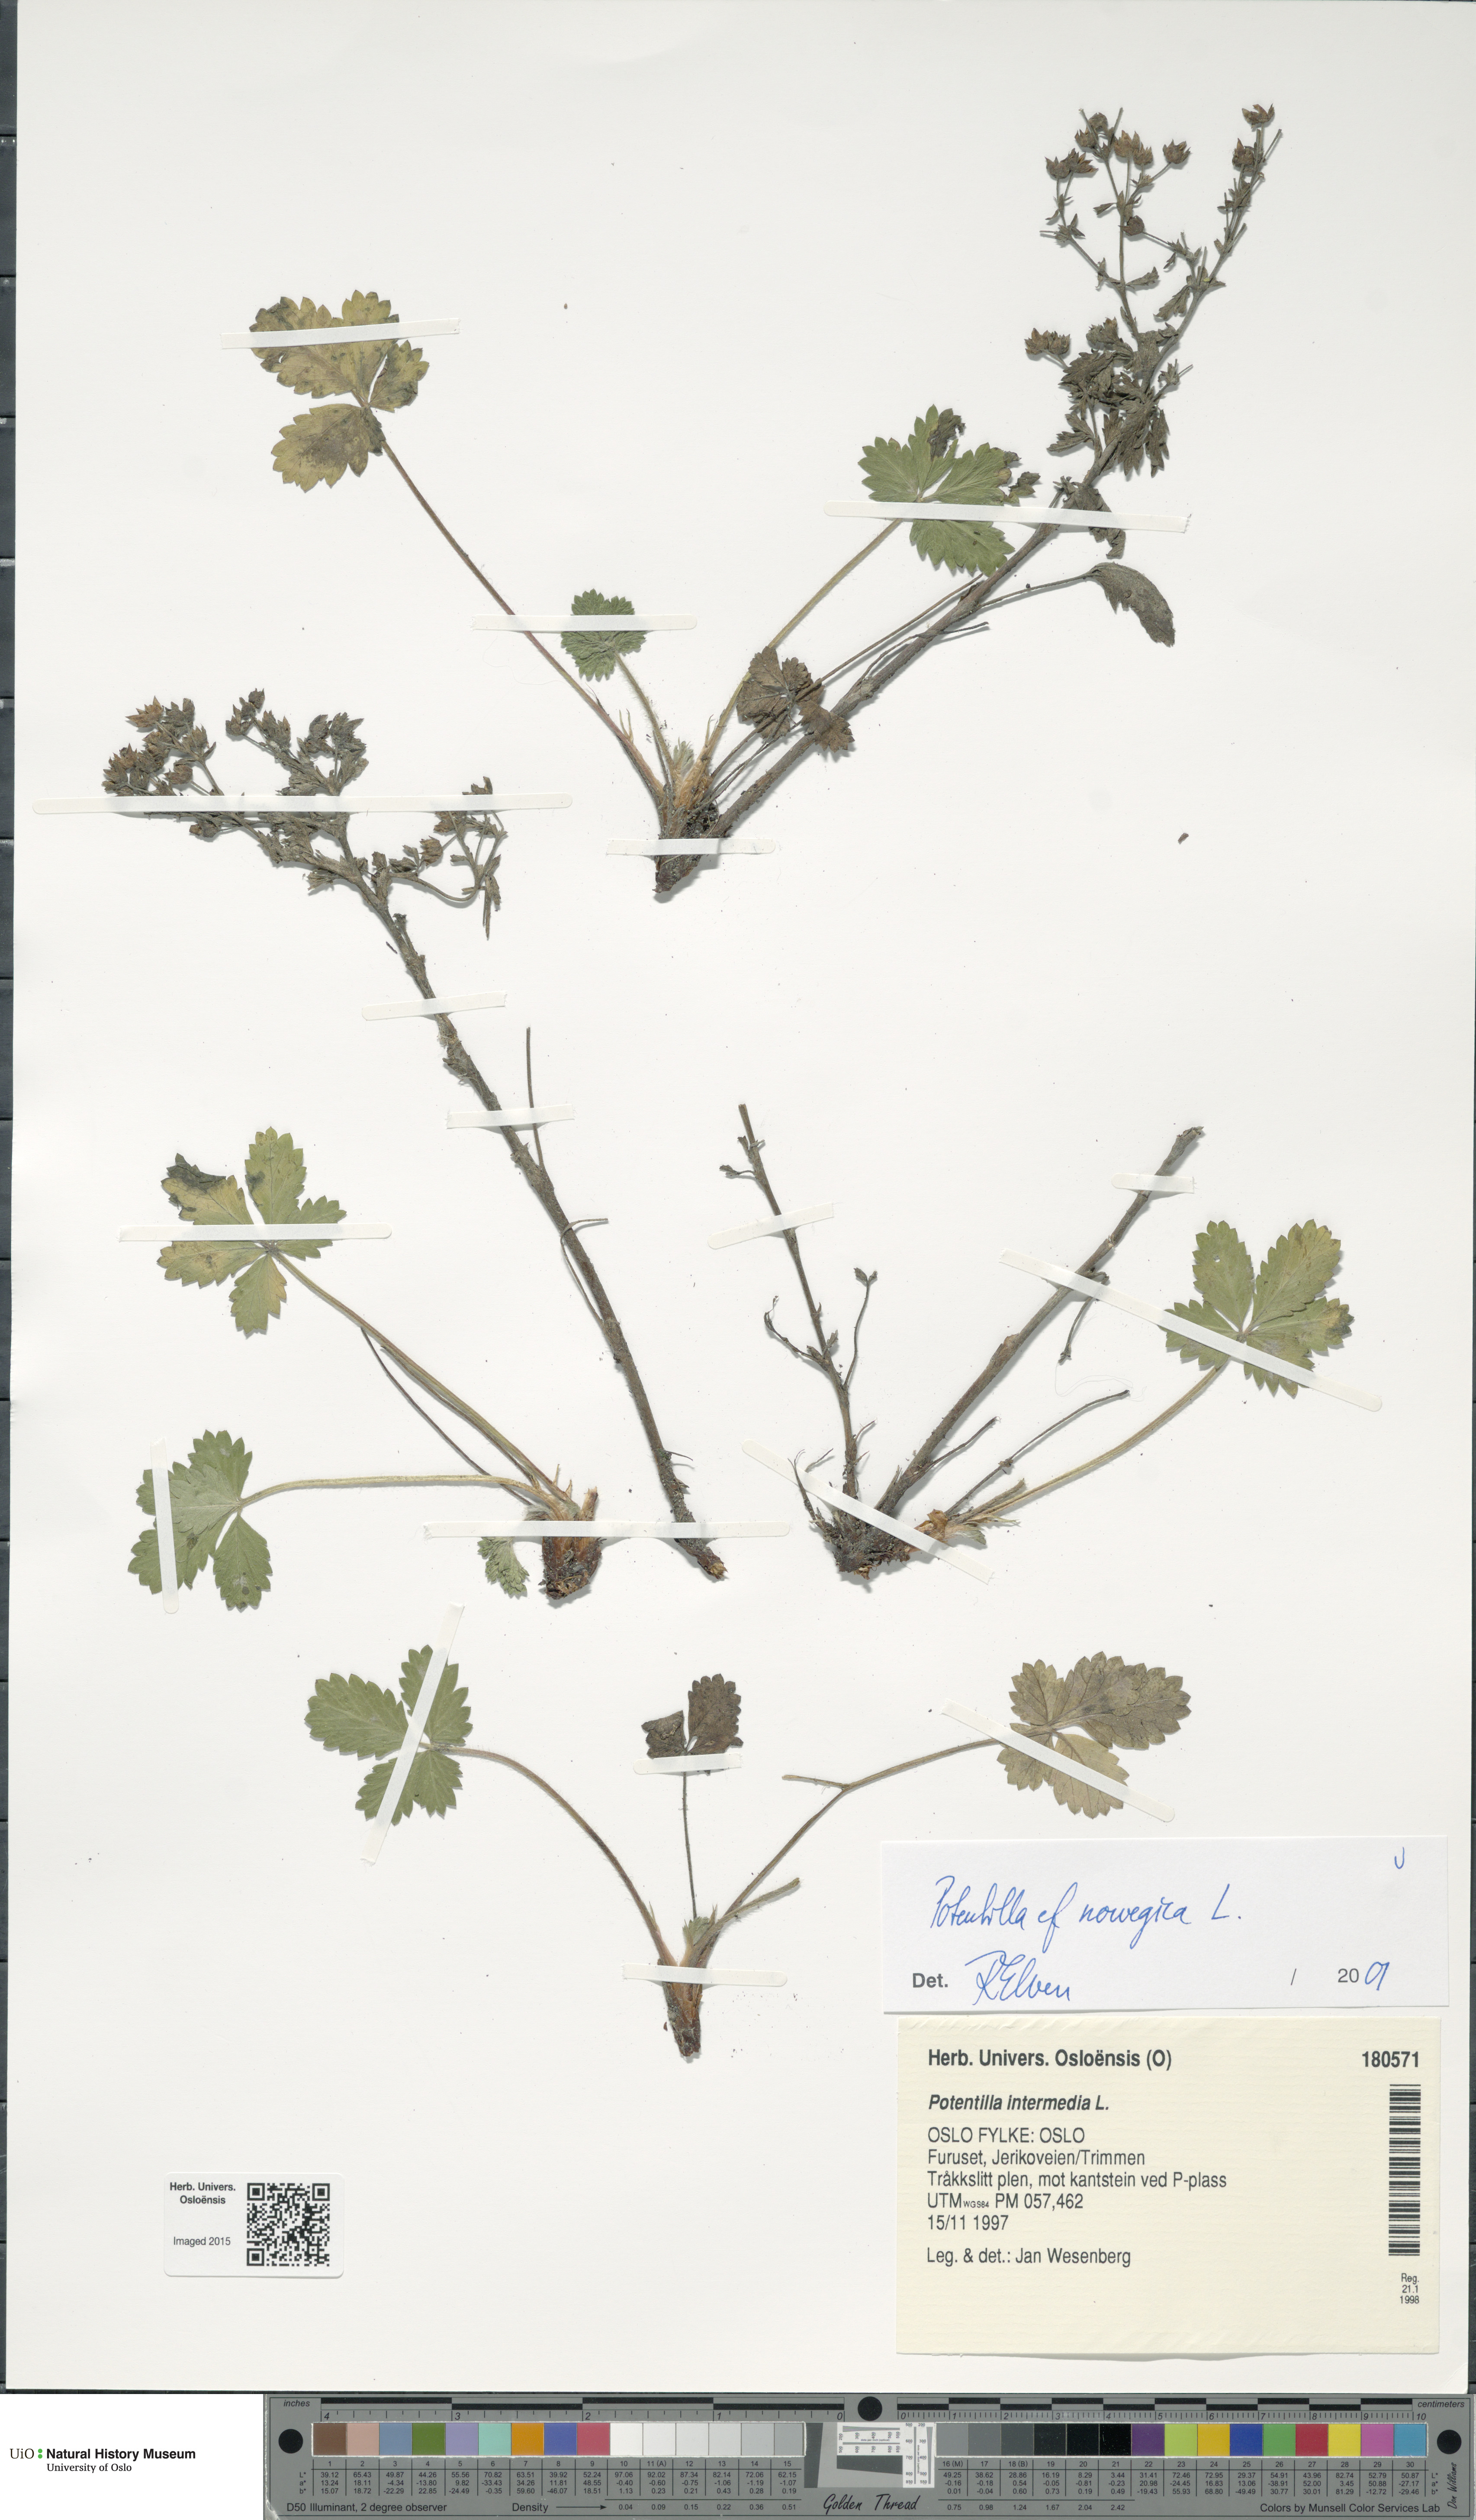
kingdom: Plantae
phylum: Tracheophyta
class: Magnoliopsida
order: Rosales
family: Rosaceae
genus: Potentilla
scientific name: Potentilla norvegica
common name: Ternate-leaved cinquefoil
